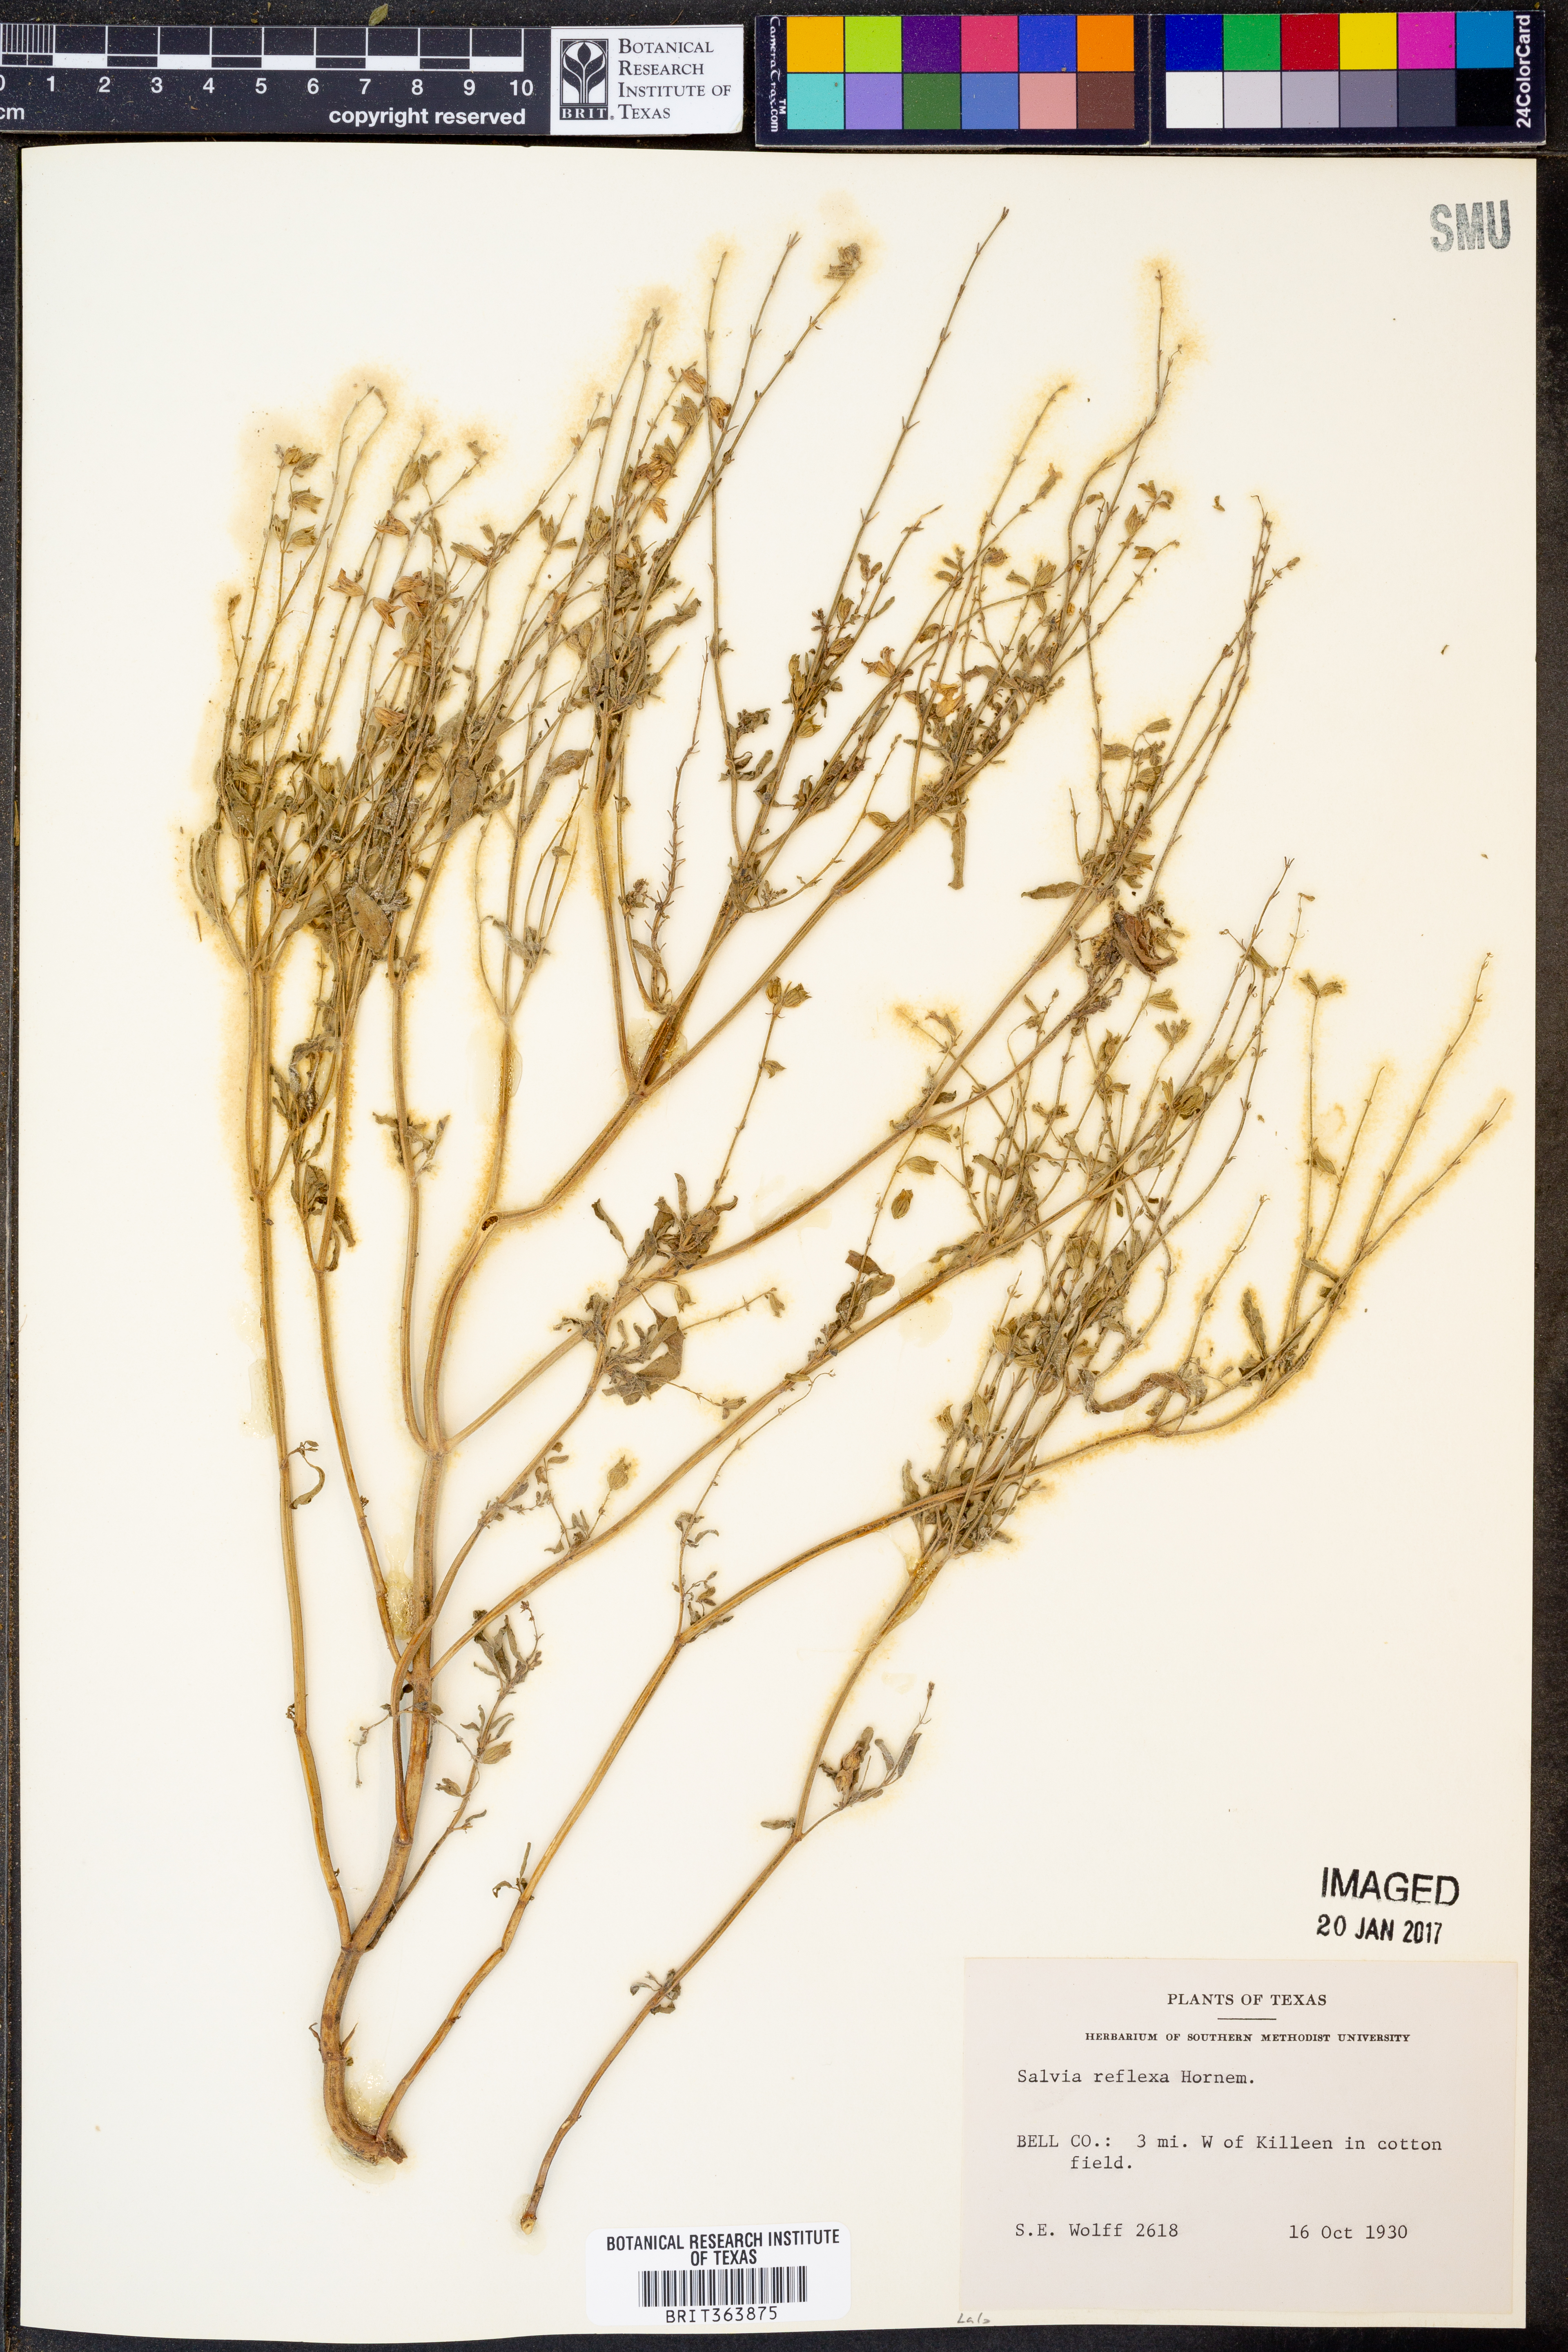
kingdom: Plantae
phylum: Tracheophyta
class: Magnoliopsida
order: Lamiales
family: Lamiaceae
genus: Salvia
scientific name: Salvia reflexa
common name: Mintweed
